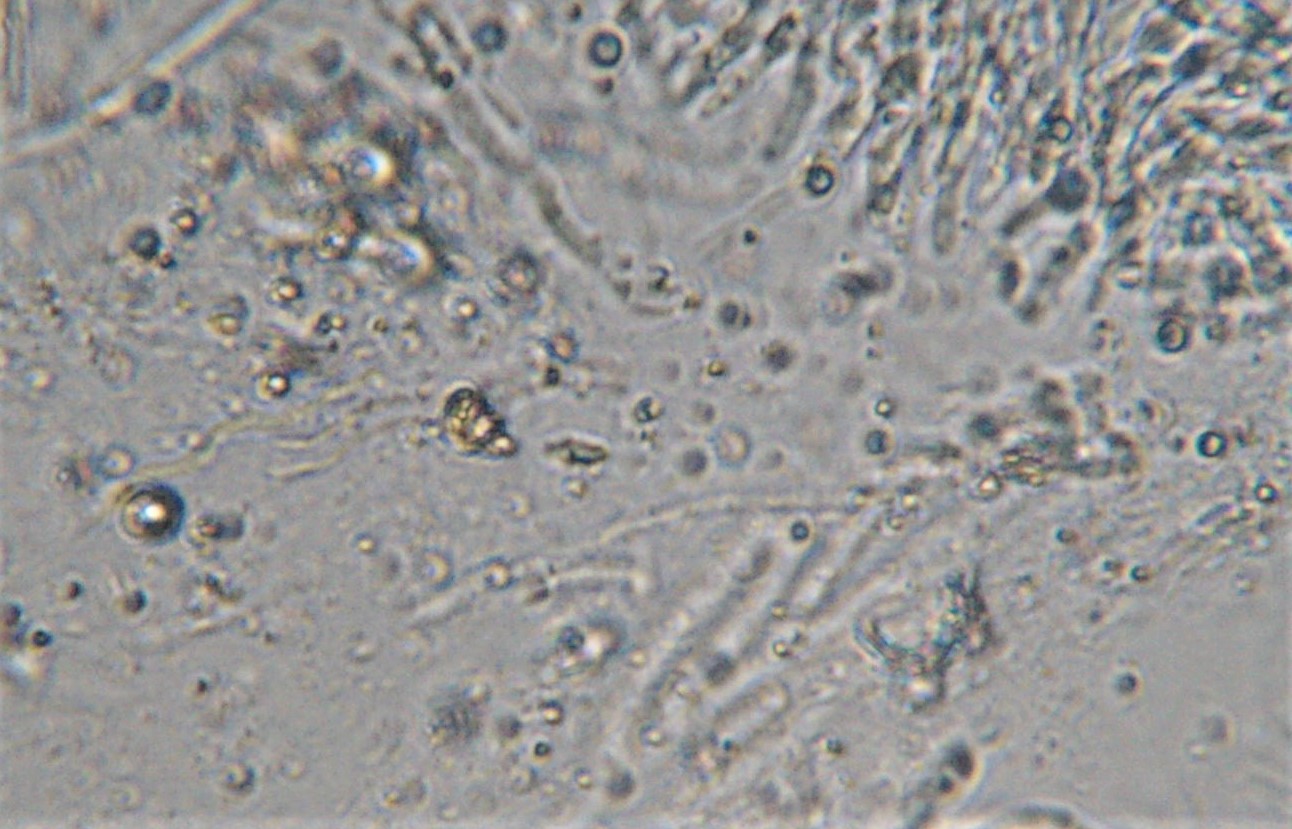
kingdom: Fungi
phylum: Basidiomycota
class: Agaricomycetes
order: Polyporales
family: Irpicaceae
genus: Gloeoporus
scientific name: Gloeoporus pannocinctus
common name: grøngul foldporesvamp
